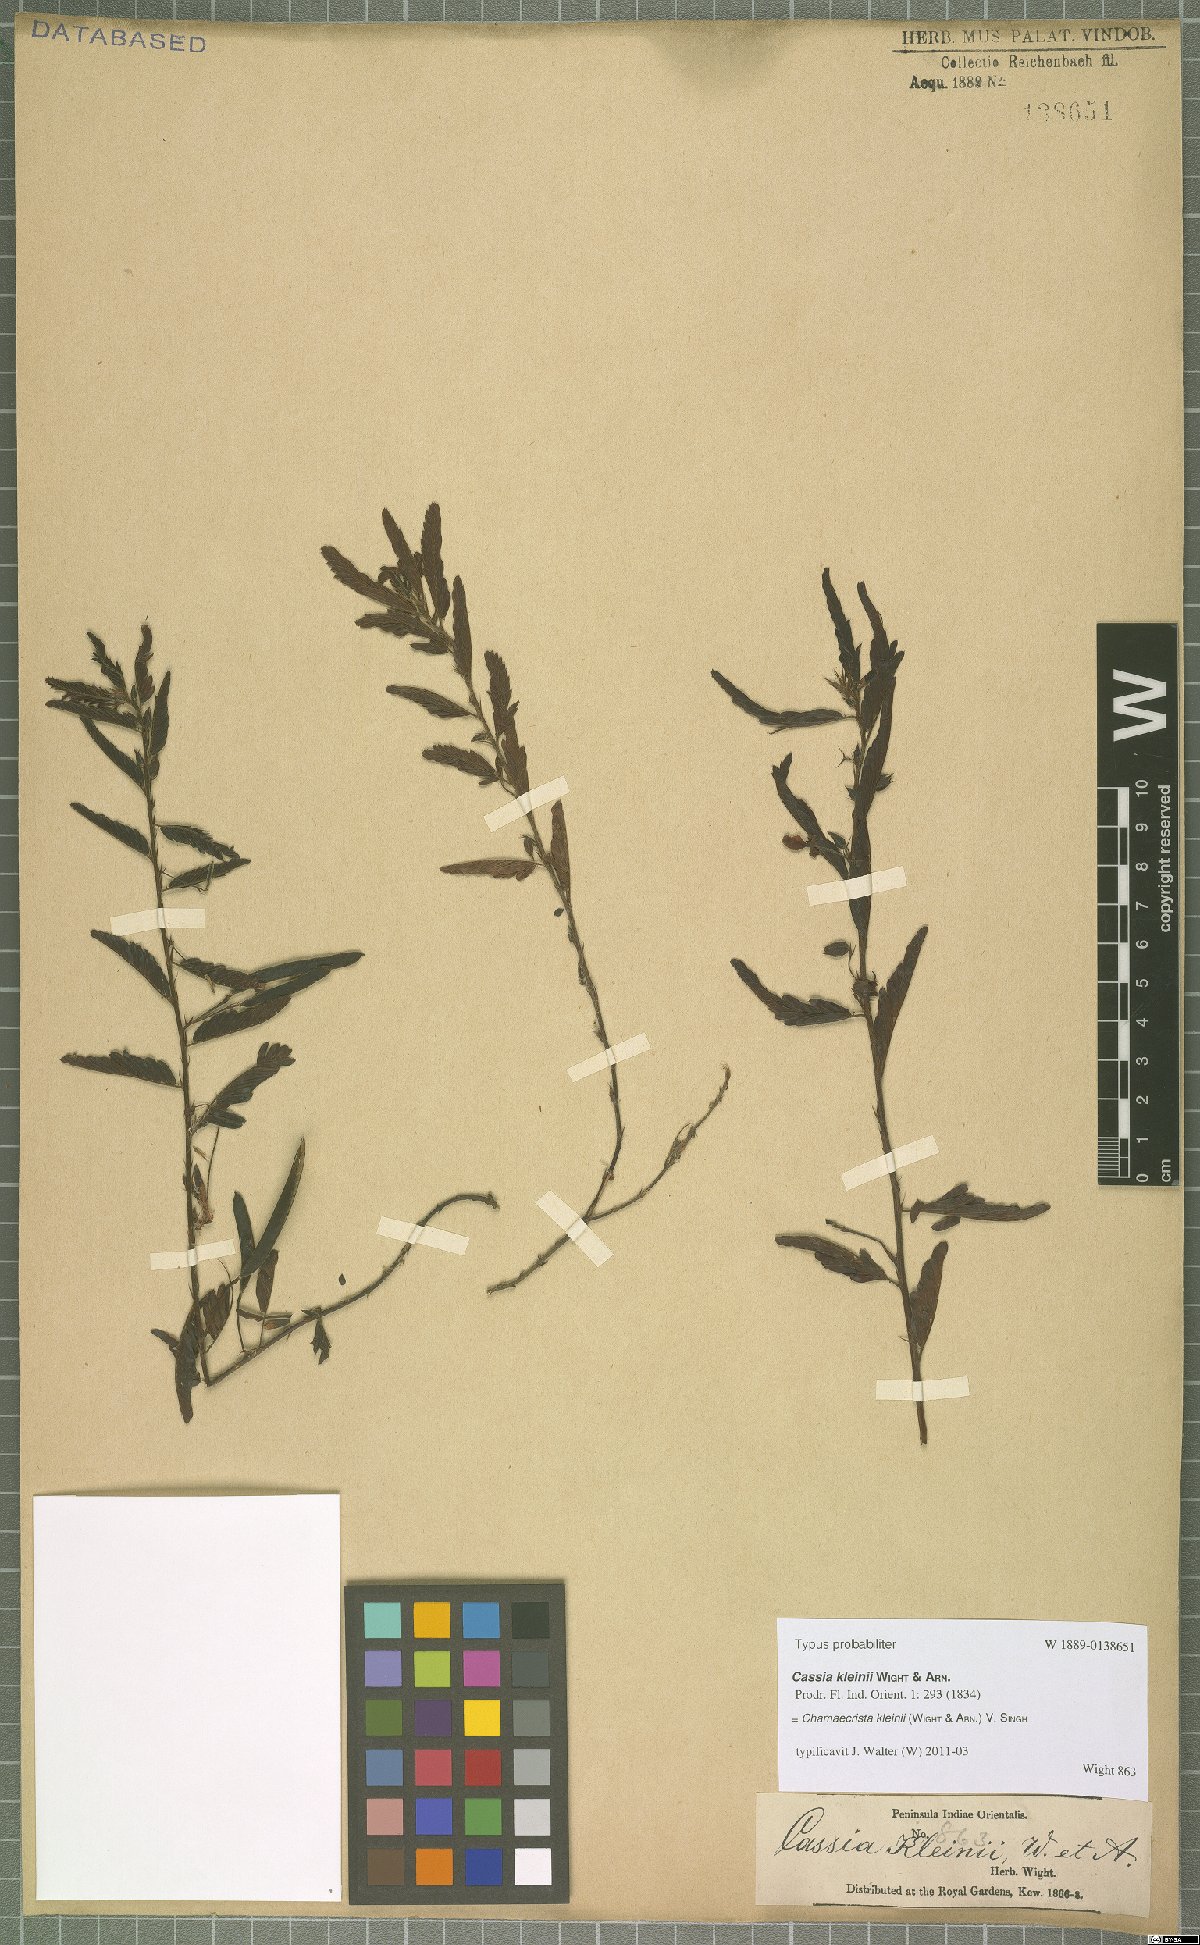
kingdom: Plantae
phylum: Tracheophyta
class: Magnoliopsida
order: Fabales
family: Fabaceae
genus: Chamaecrista
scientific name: Chamaecrista kleinii
